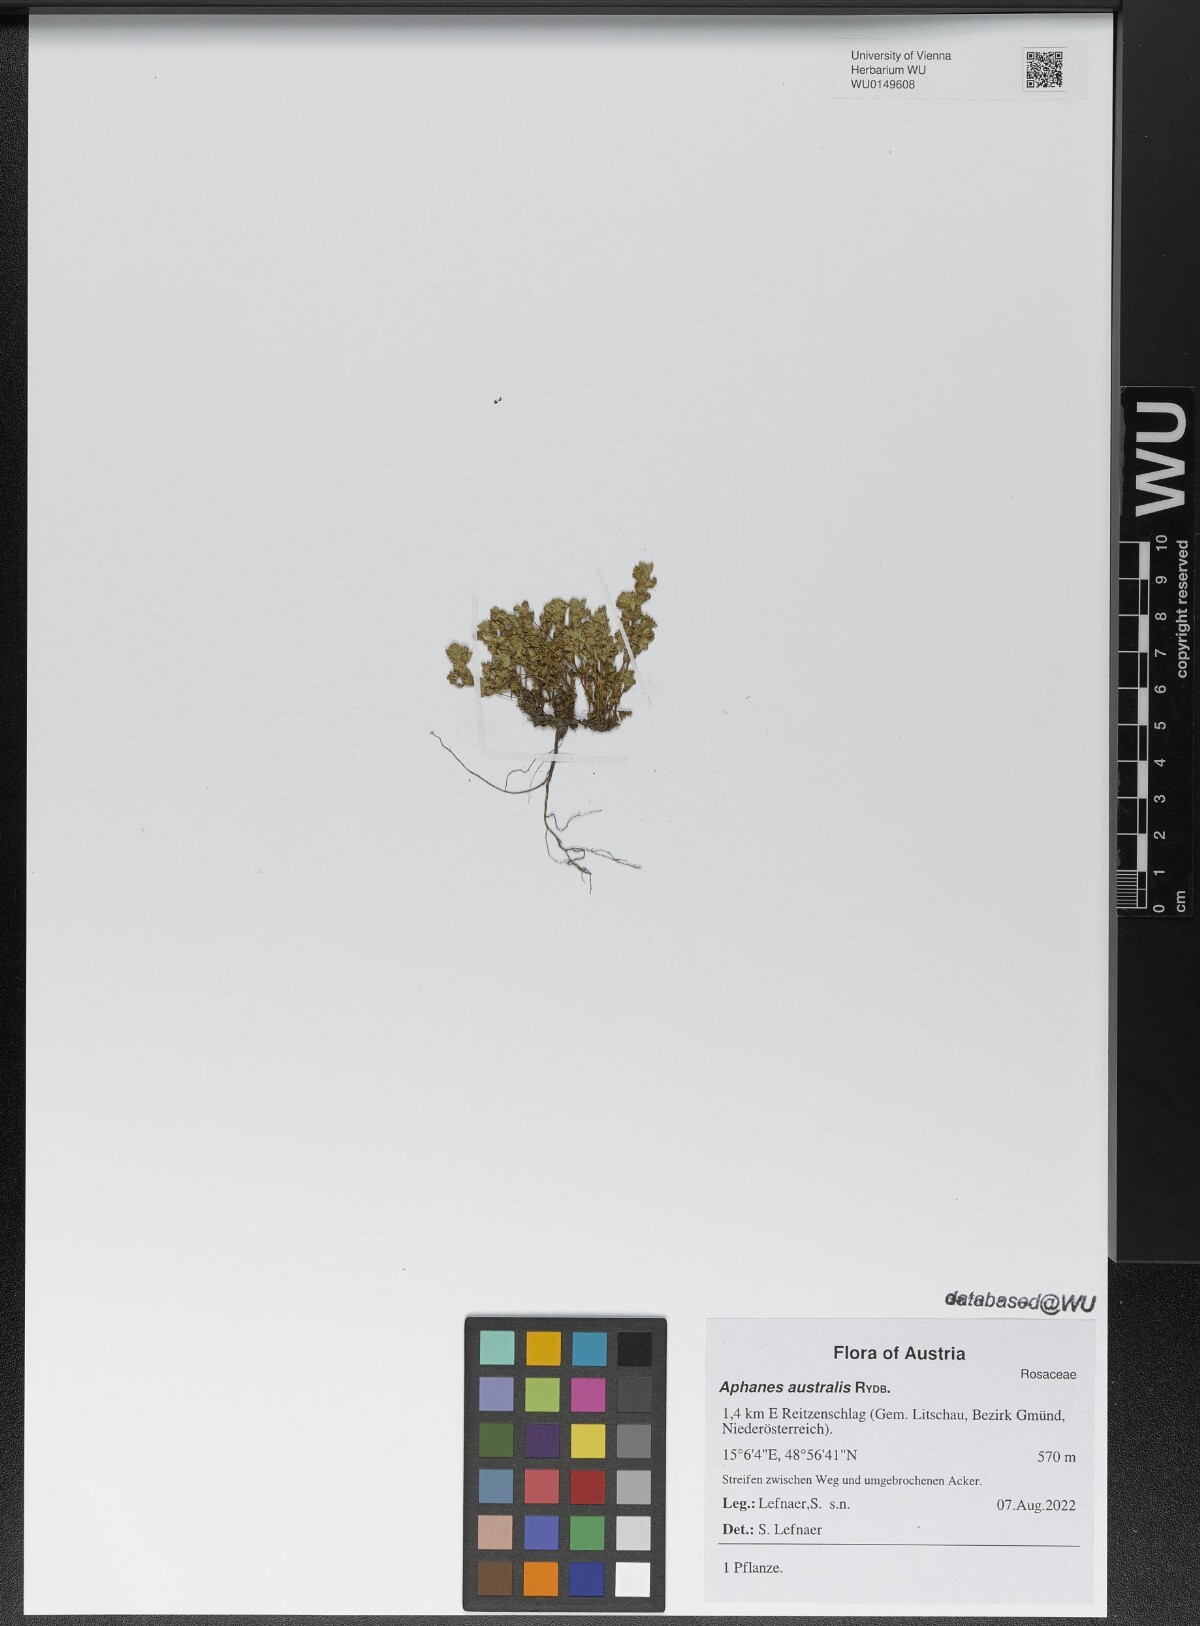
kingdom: Plantae
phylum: Tracheophyta
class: Magnoliopsida
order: Rosales
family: Rosaceae
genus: Aphanes
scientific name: Aphanes australis
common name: Slender parsley-piert
